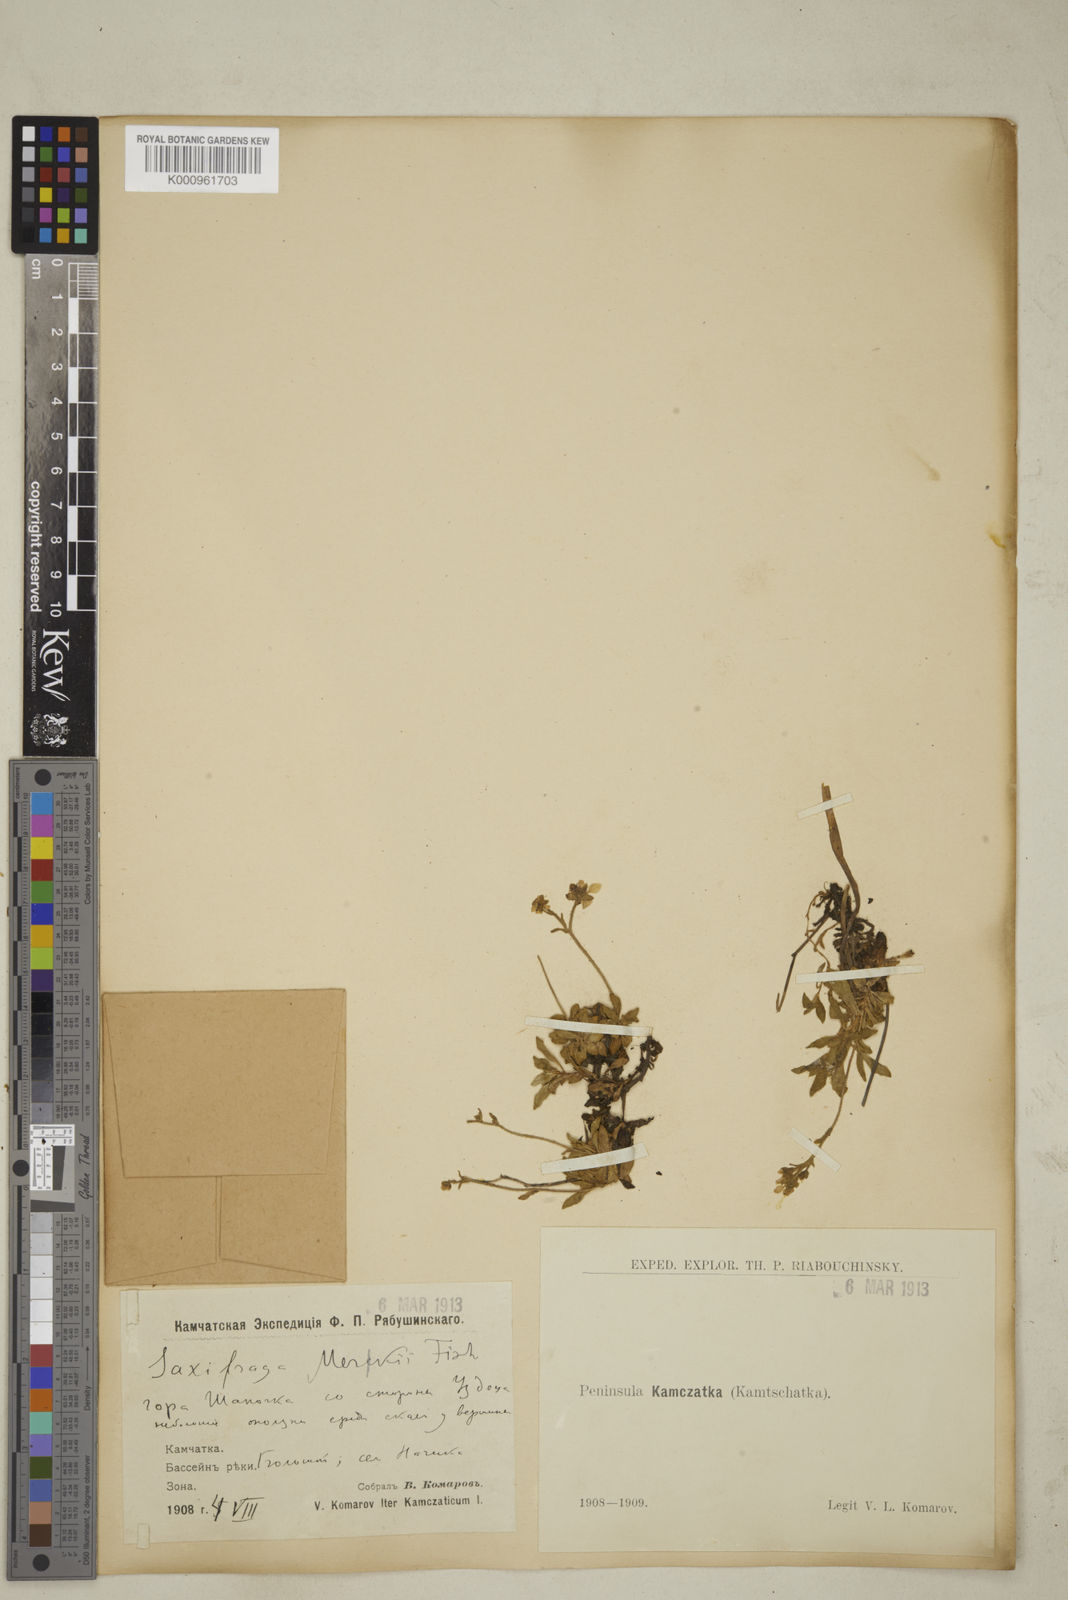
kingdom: Plantae
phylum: Tracheophyta
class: Magnoliopsida
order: Saxifragales
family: Saxifragaceae
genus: Micranthes
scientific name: Micranthes merkii
